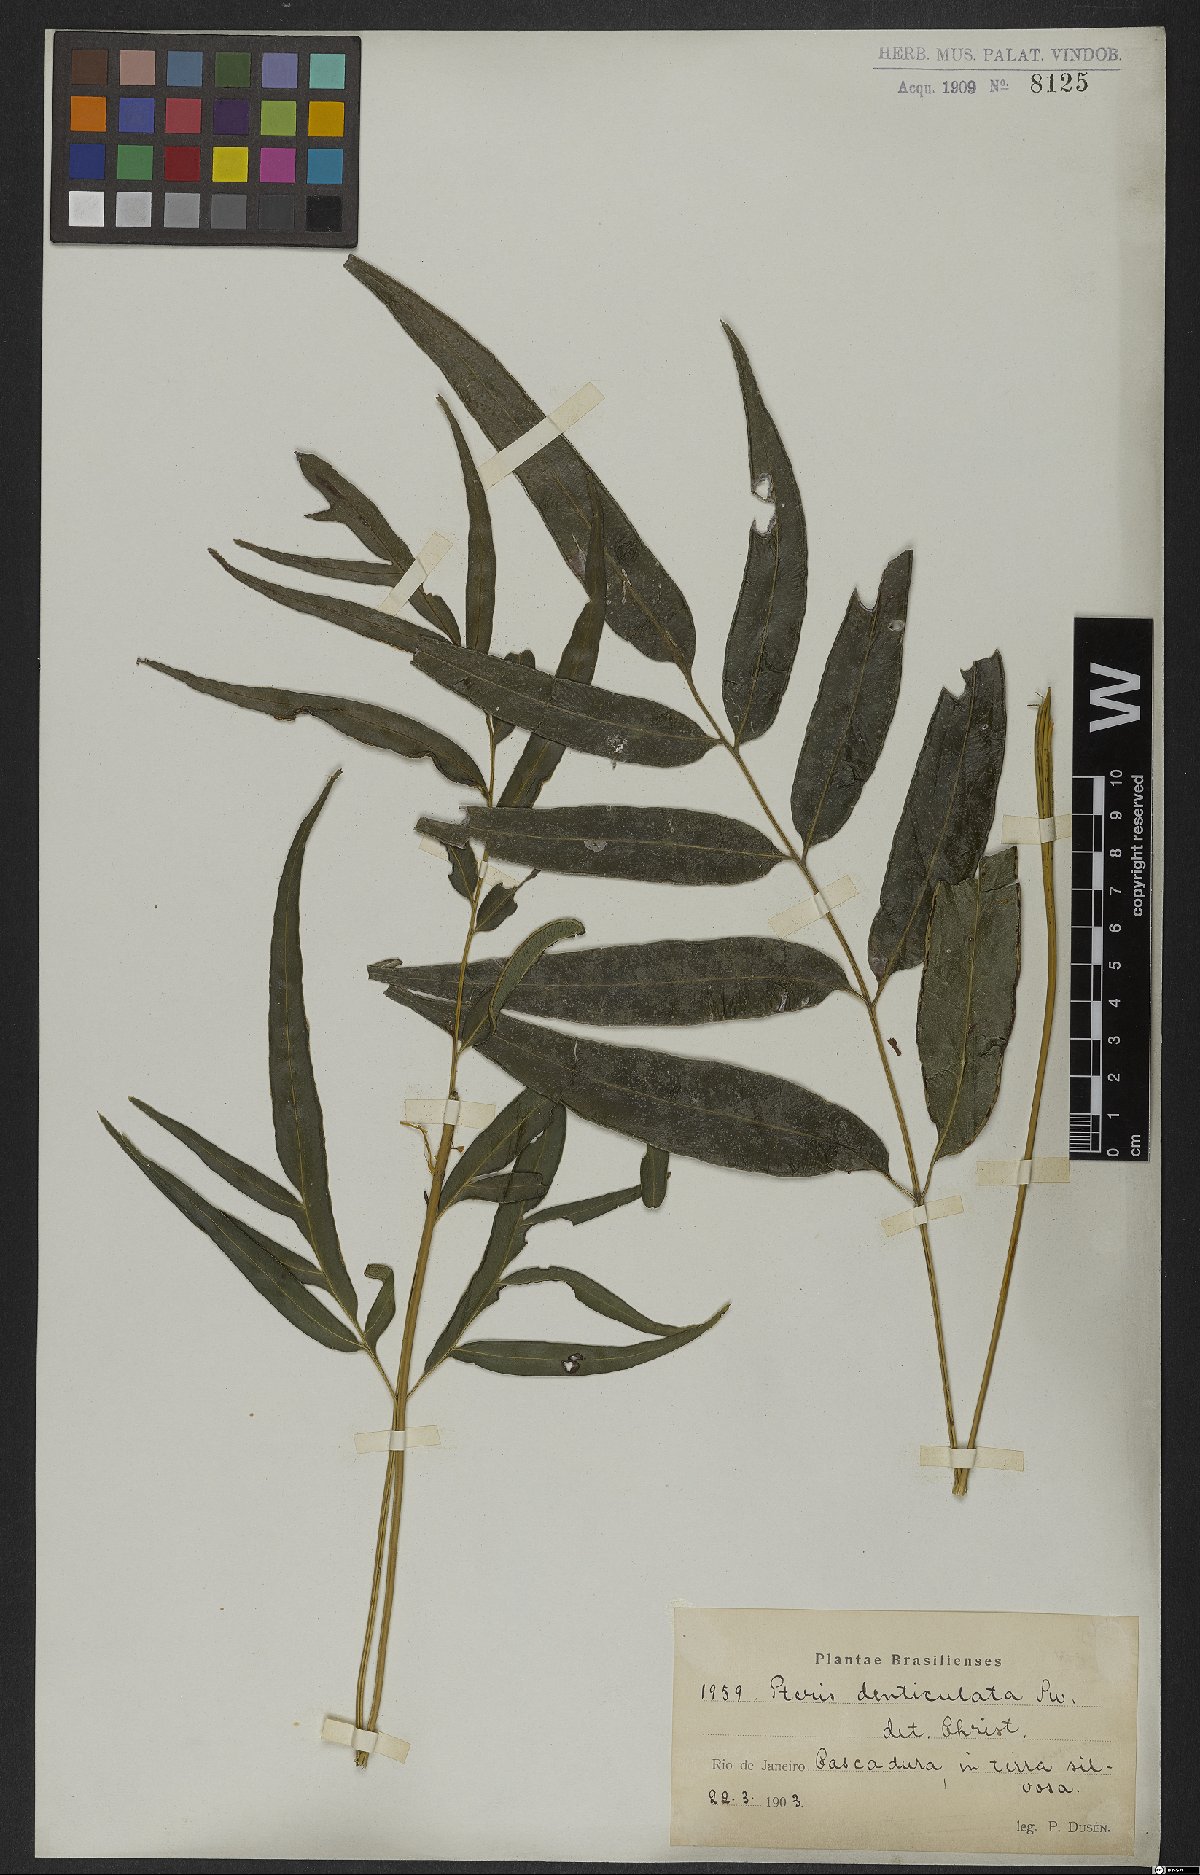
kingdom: Plantae
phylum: Tracheophyta
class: Polypodiopsida
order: Polypodiales
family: Pteridaceae
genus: Pteris
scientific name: Pteris denticulata
